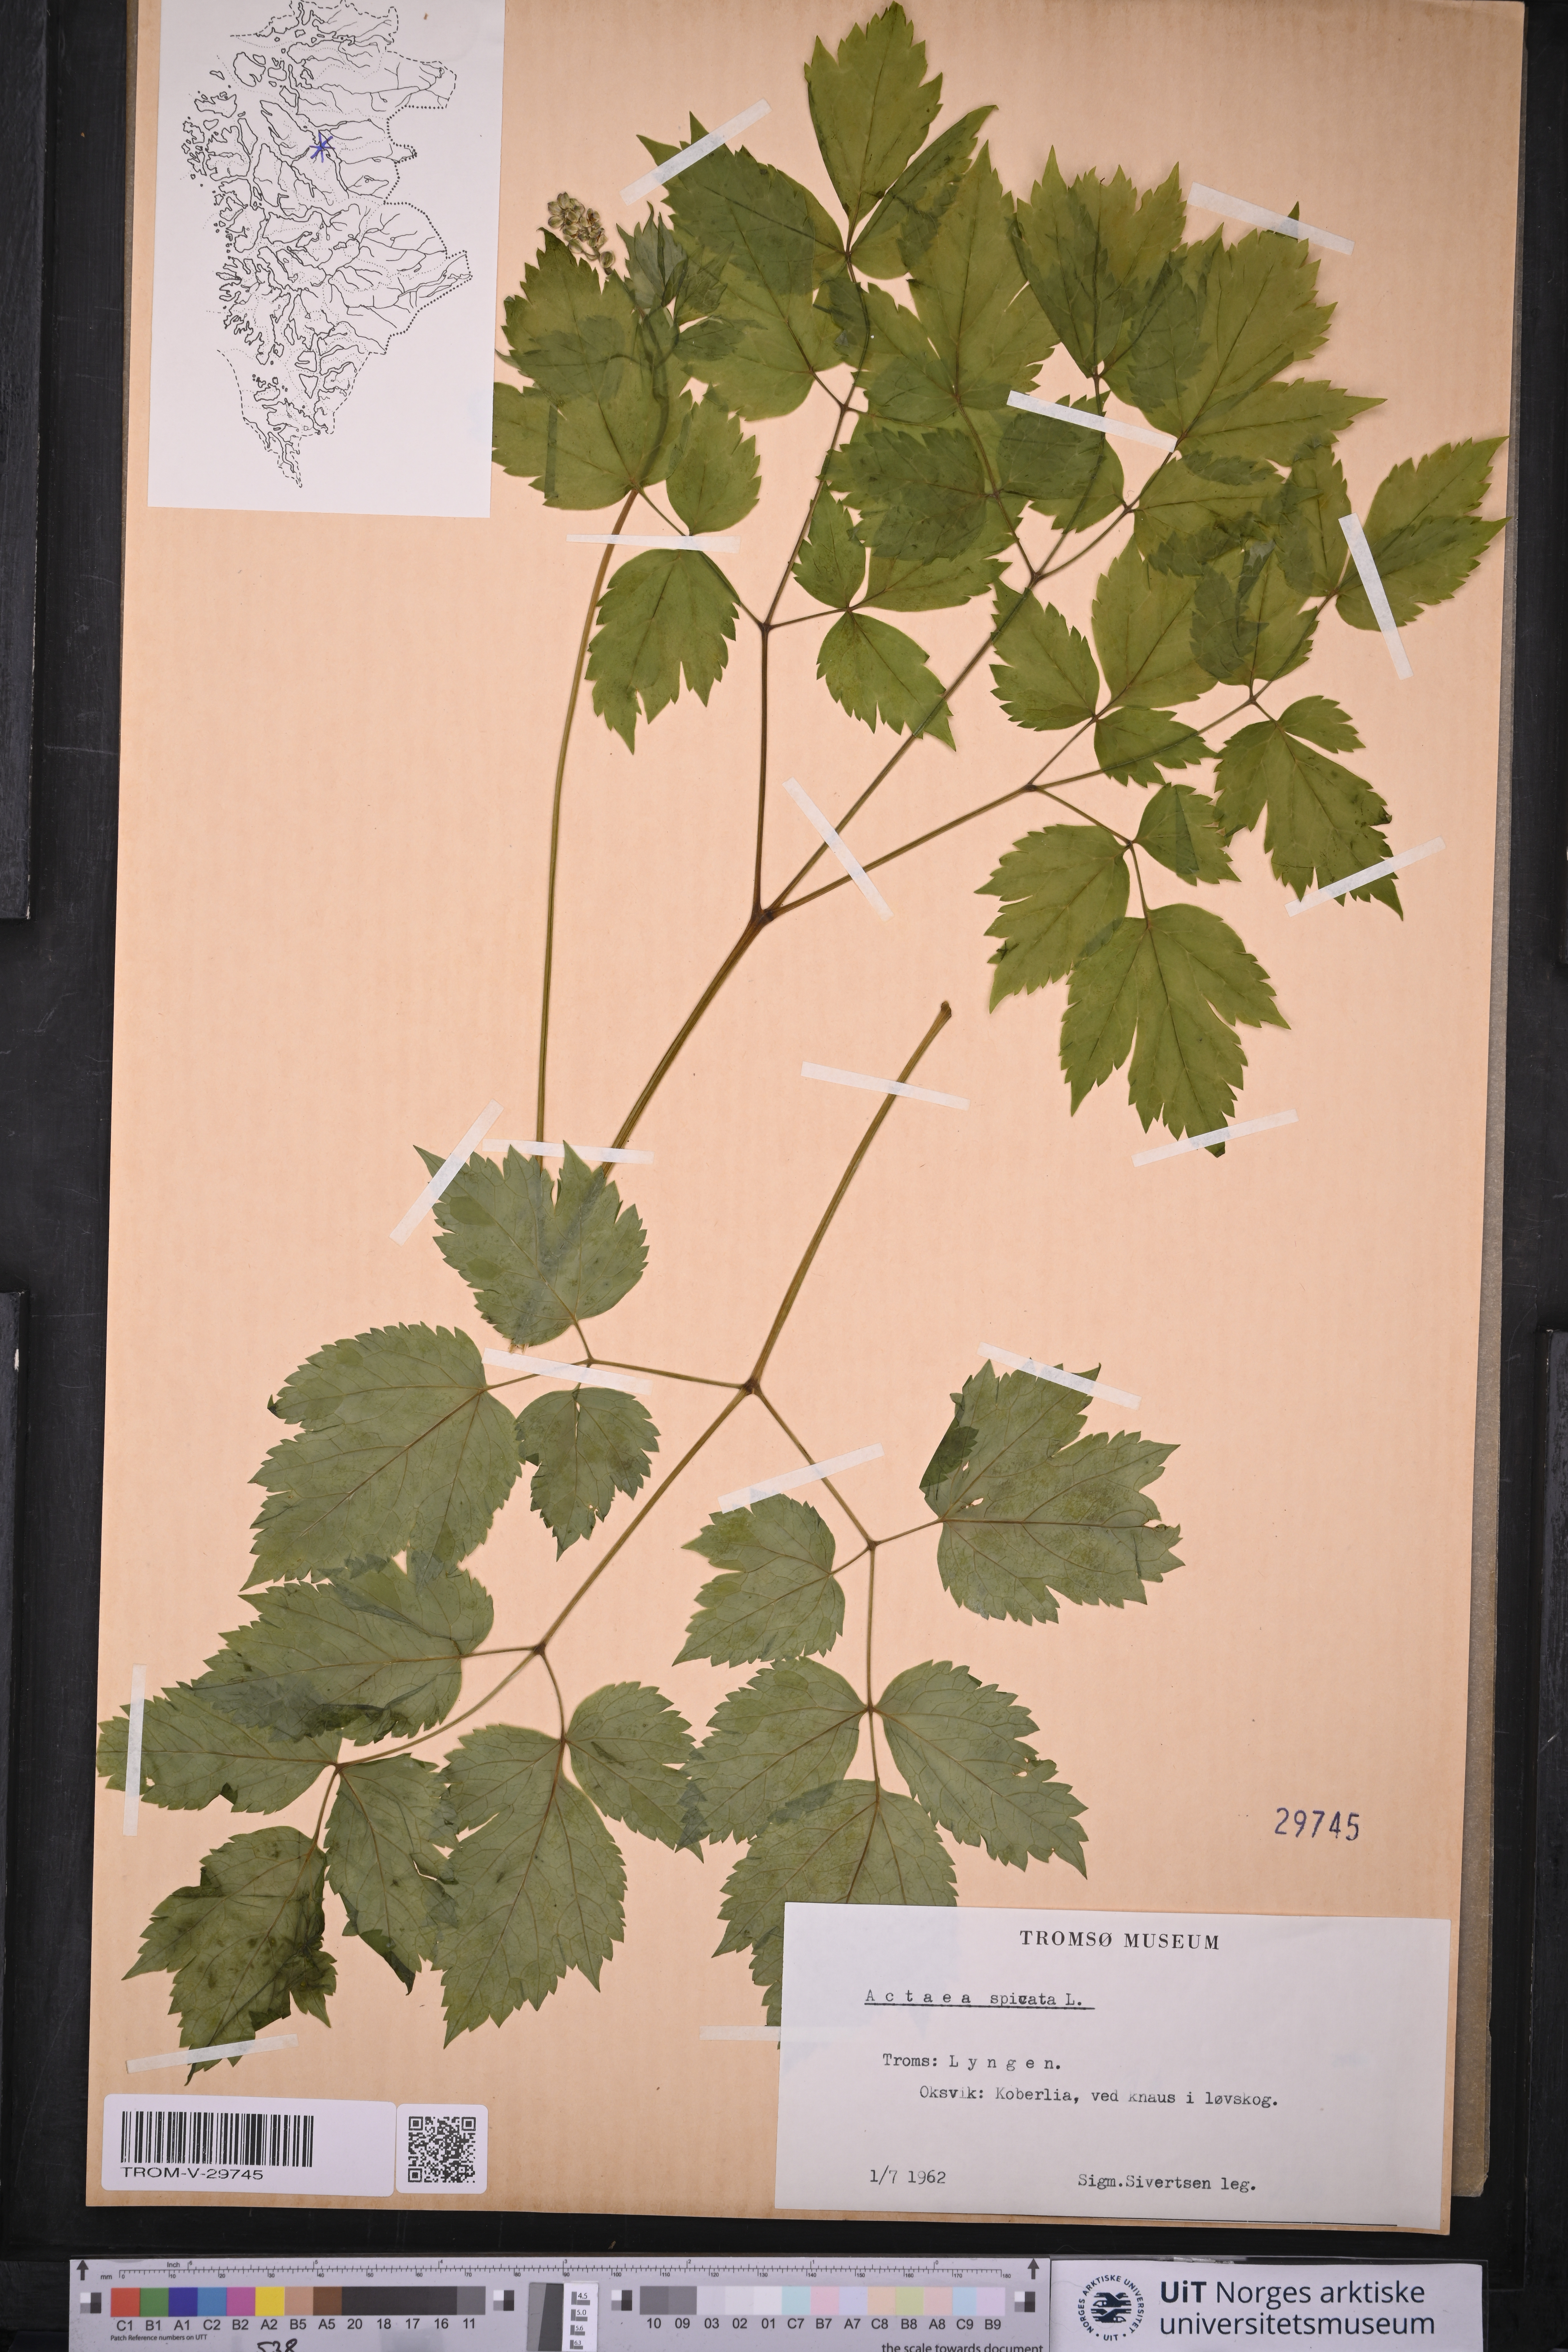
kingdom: Plantae
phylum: Tracheophyta
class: Magnoliopsida
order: Ranunculales
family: Ranunculaceae
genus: Actaea
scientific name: Actaea spicata
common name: Baneberry
